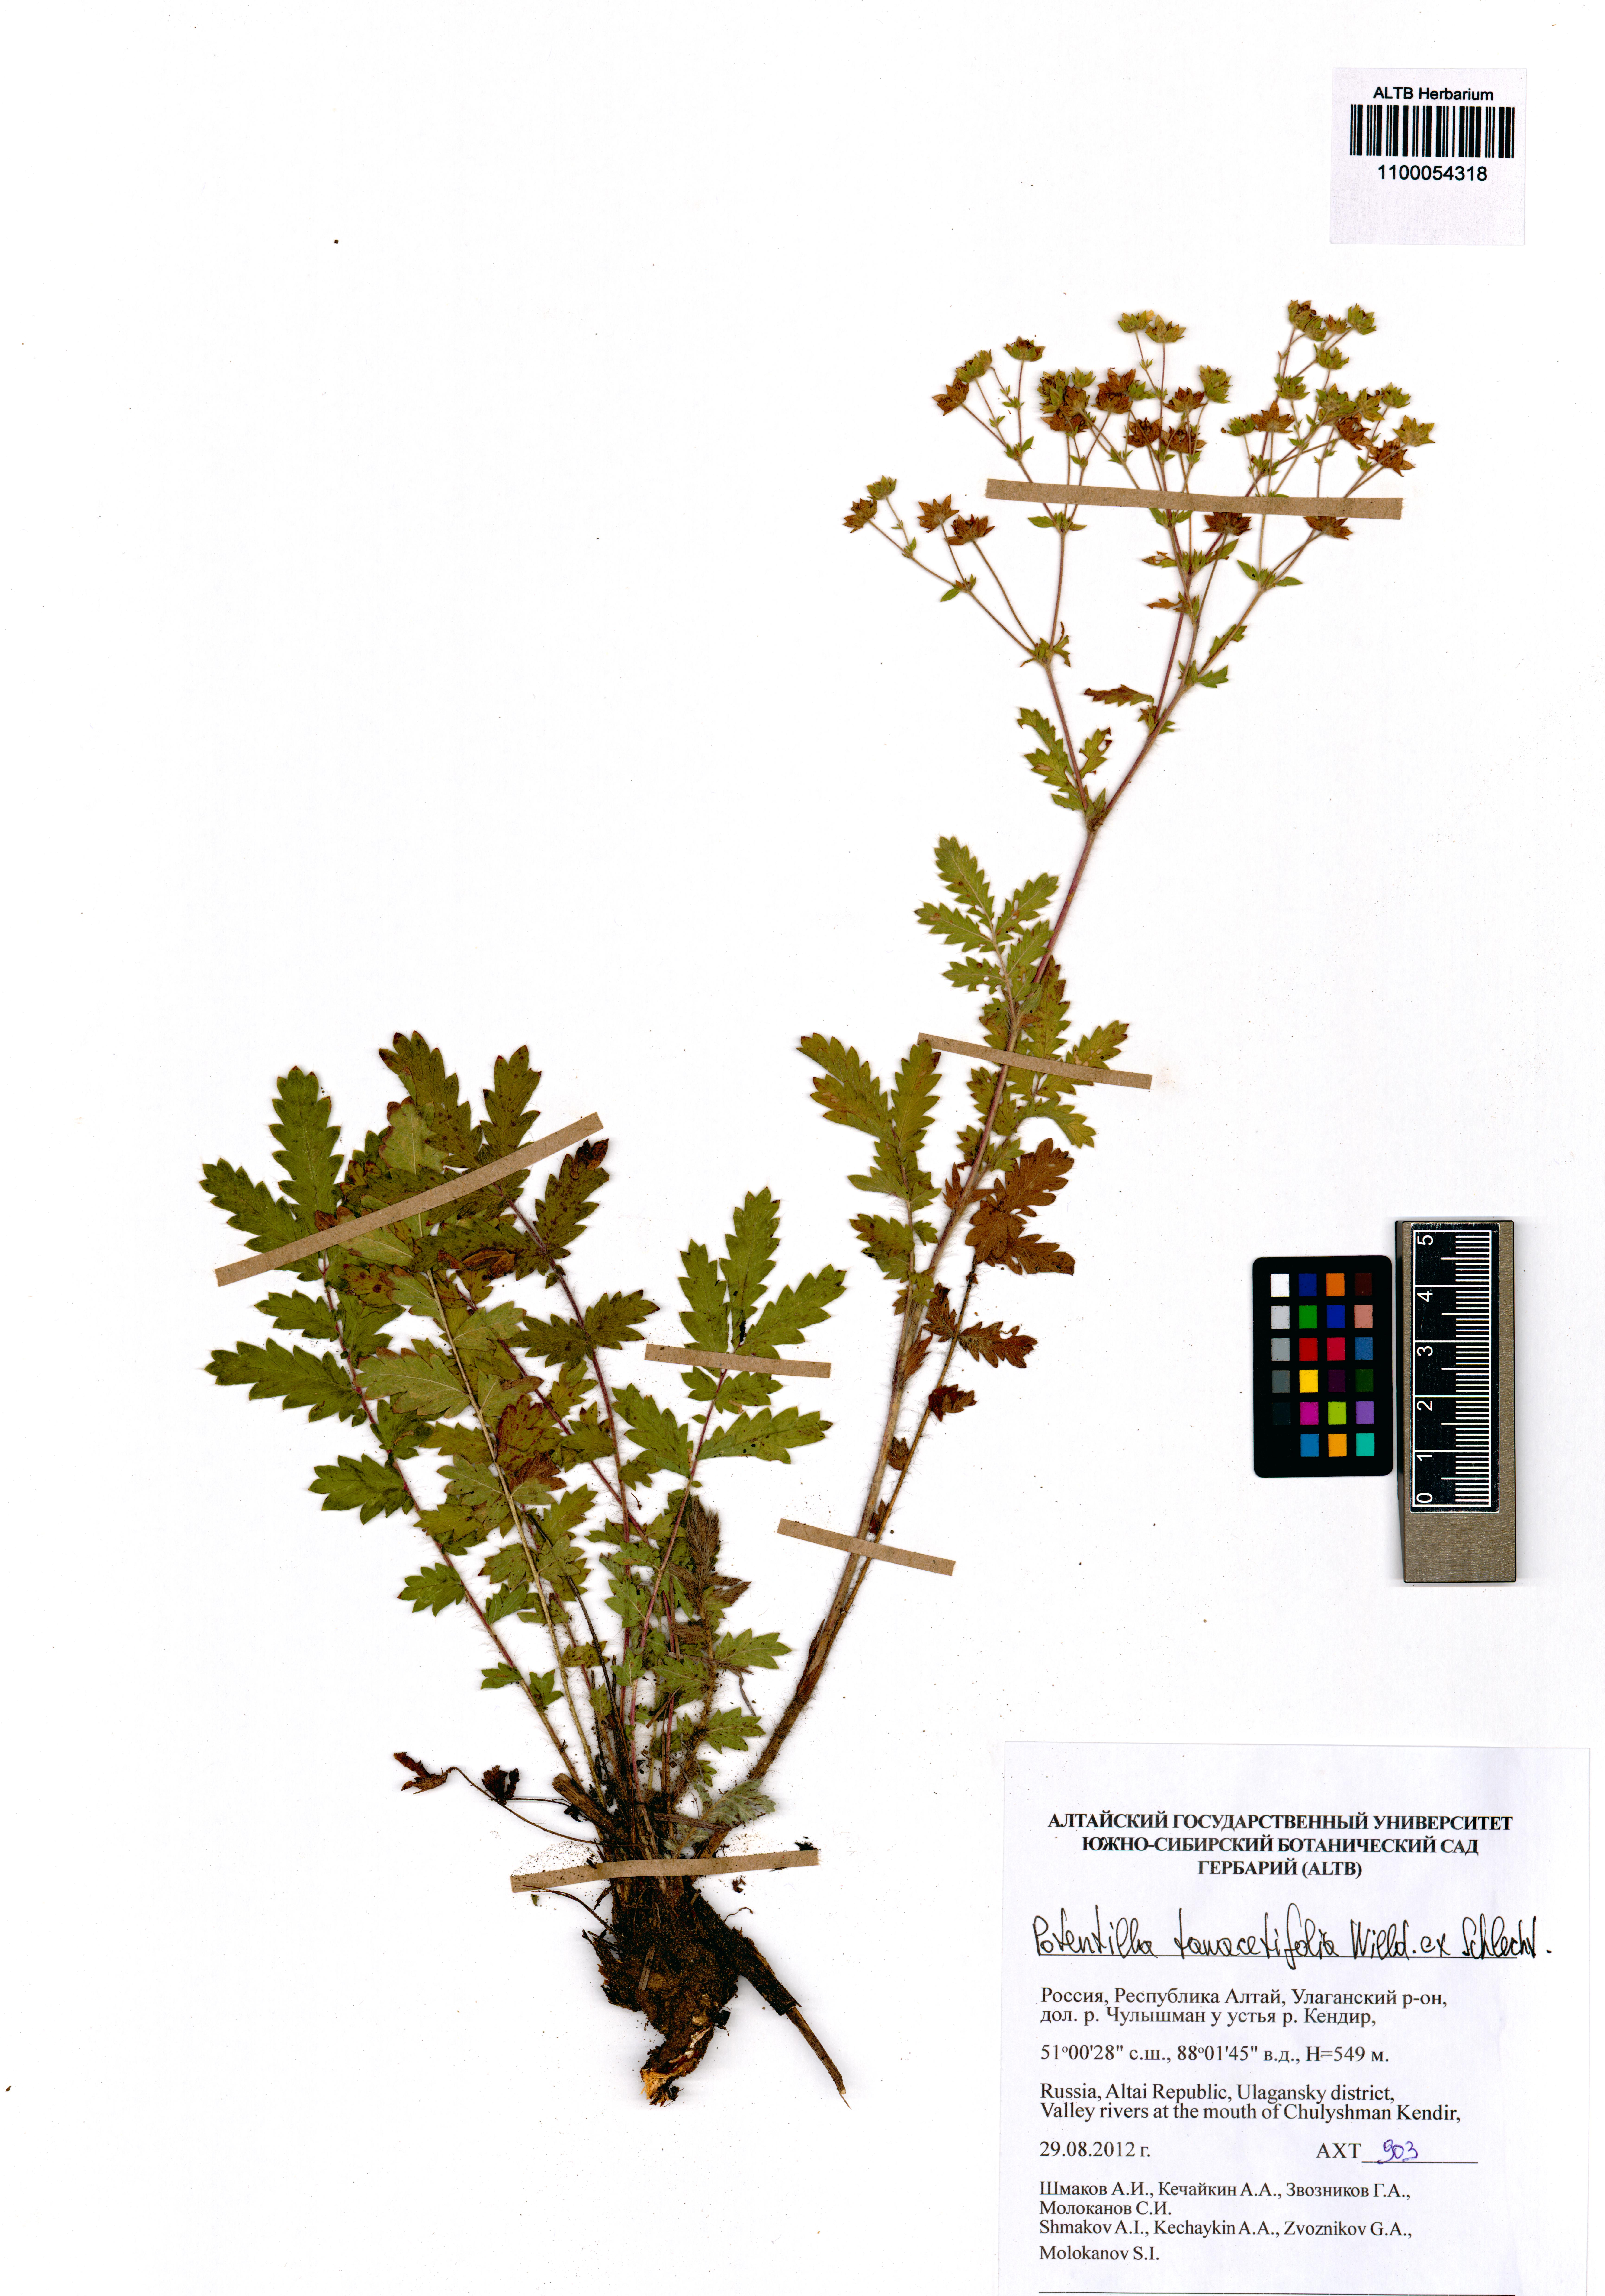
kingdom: Plantae
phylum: Tracheophyta
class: Magnoliopsida
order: Rosales
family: Rosaceae
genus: Potentilla
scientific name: Potentilla tanacetifolia
